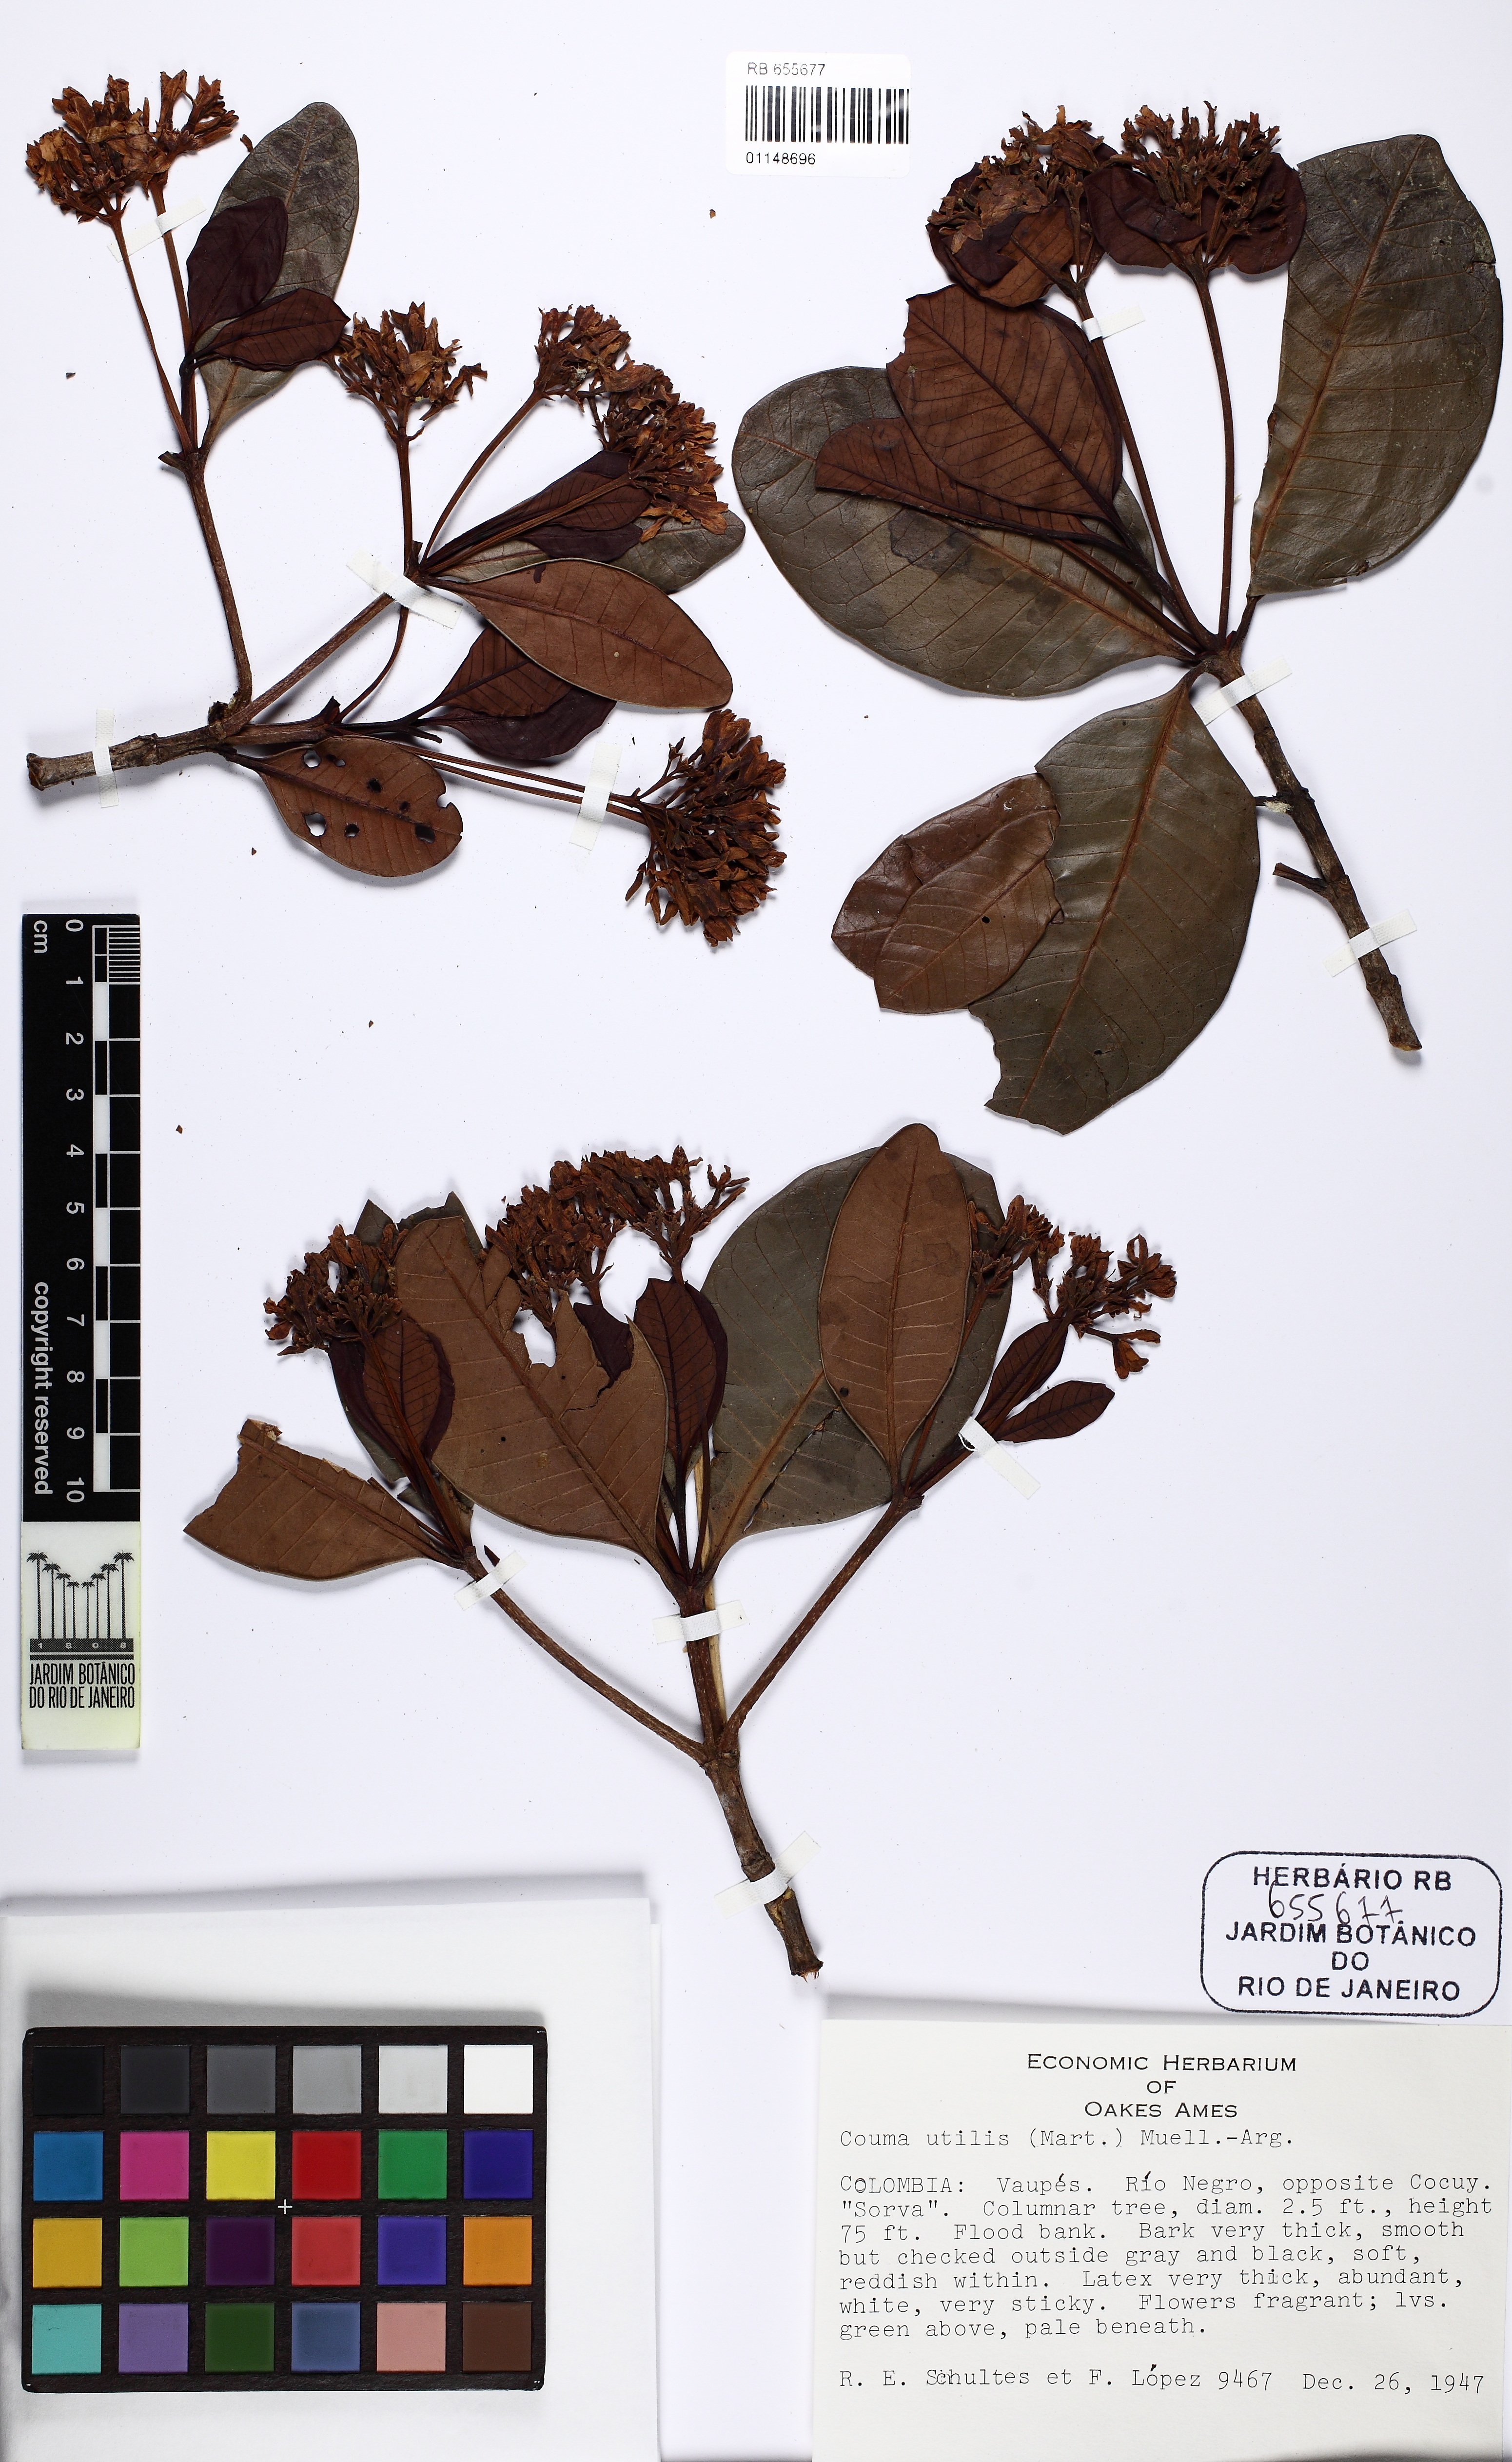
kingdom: Plantae
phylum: Tracheophyta
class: Magnoliopsida
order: Gentianales
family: Apocynaceae
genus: Couma
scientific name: Couma utilis
